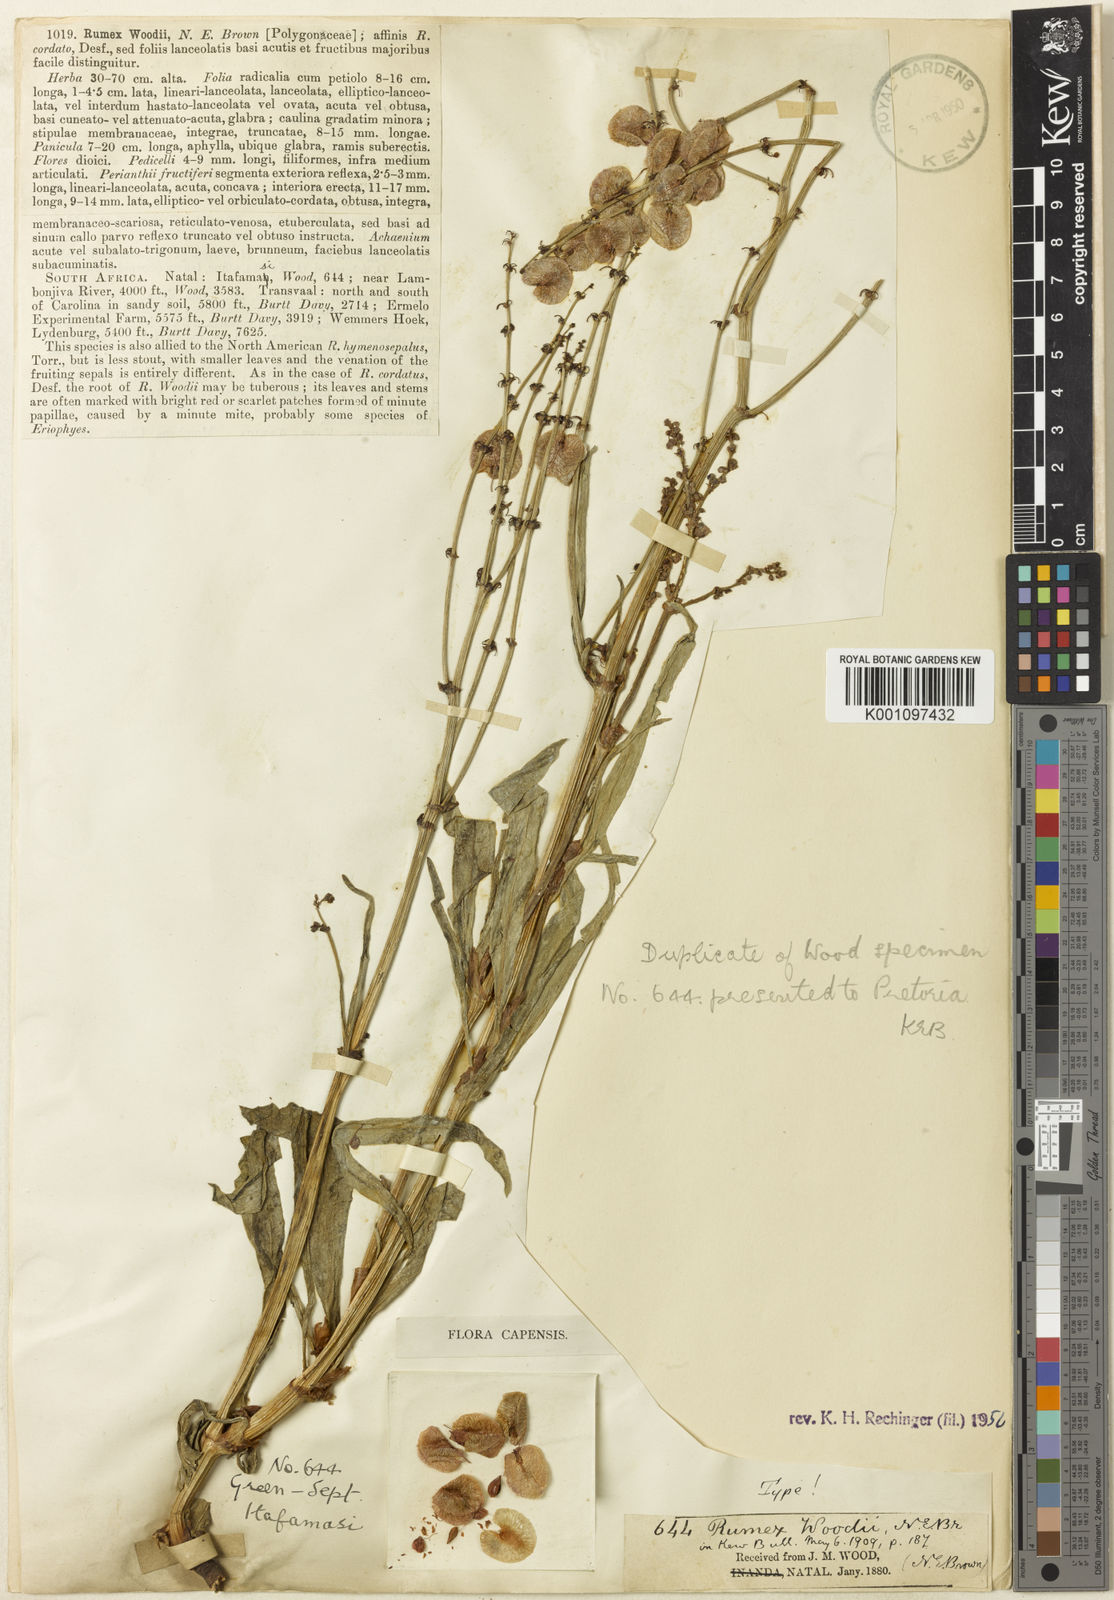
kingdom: Plantae
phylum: Tracheophyta
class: Magnoliopsida
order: Caryophyllales
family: Polygonaceae
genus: Rumex
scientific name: Rumex woodii
